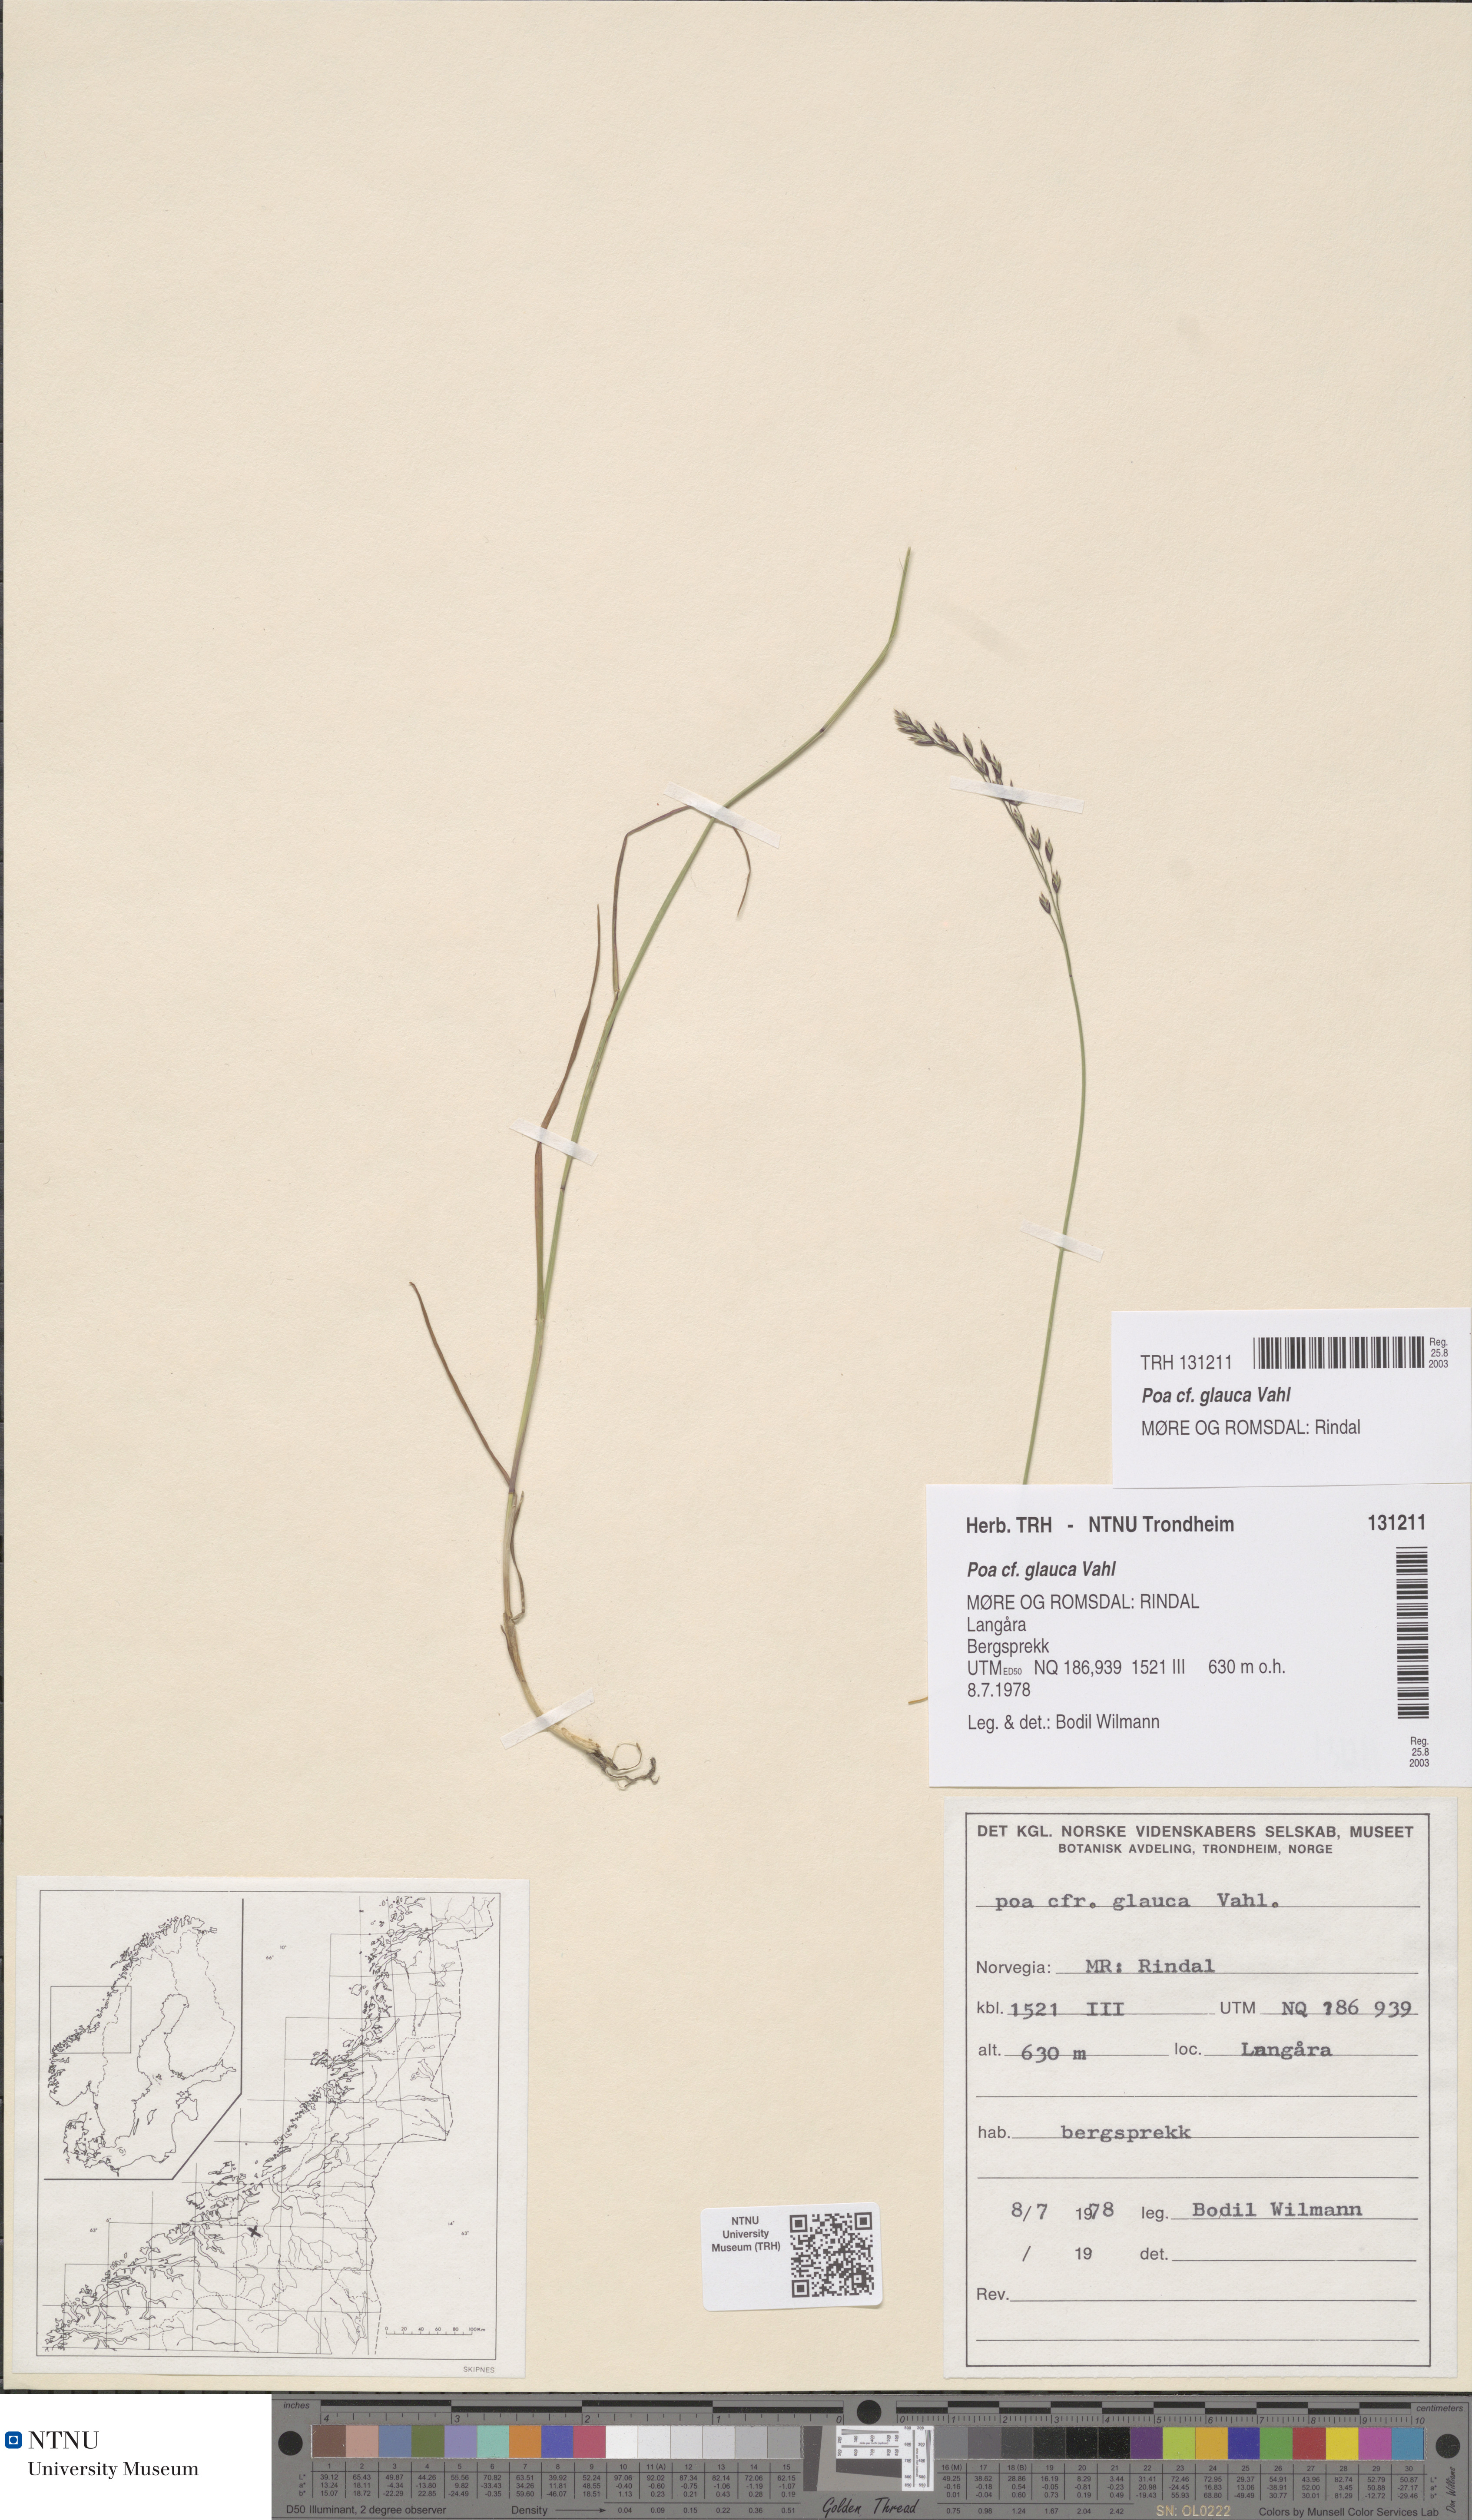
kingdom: Plantae
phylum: Tracheophyta
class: Liliopsida
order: Poales
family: Poaceae
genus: Poa
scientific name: Poa glauca
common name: Glaucous bluegrass
